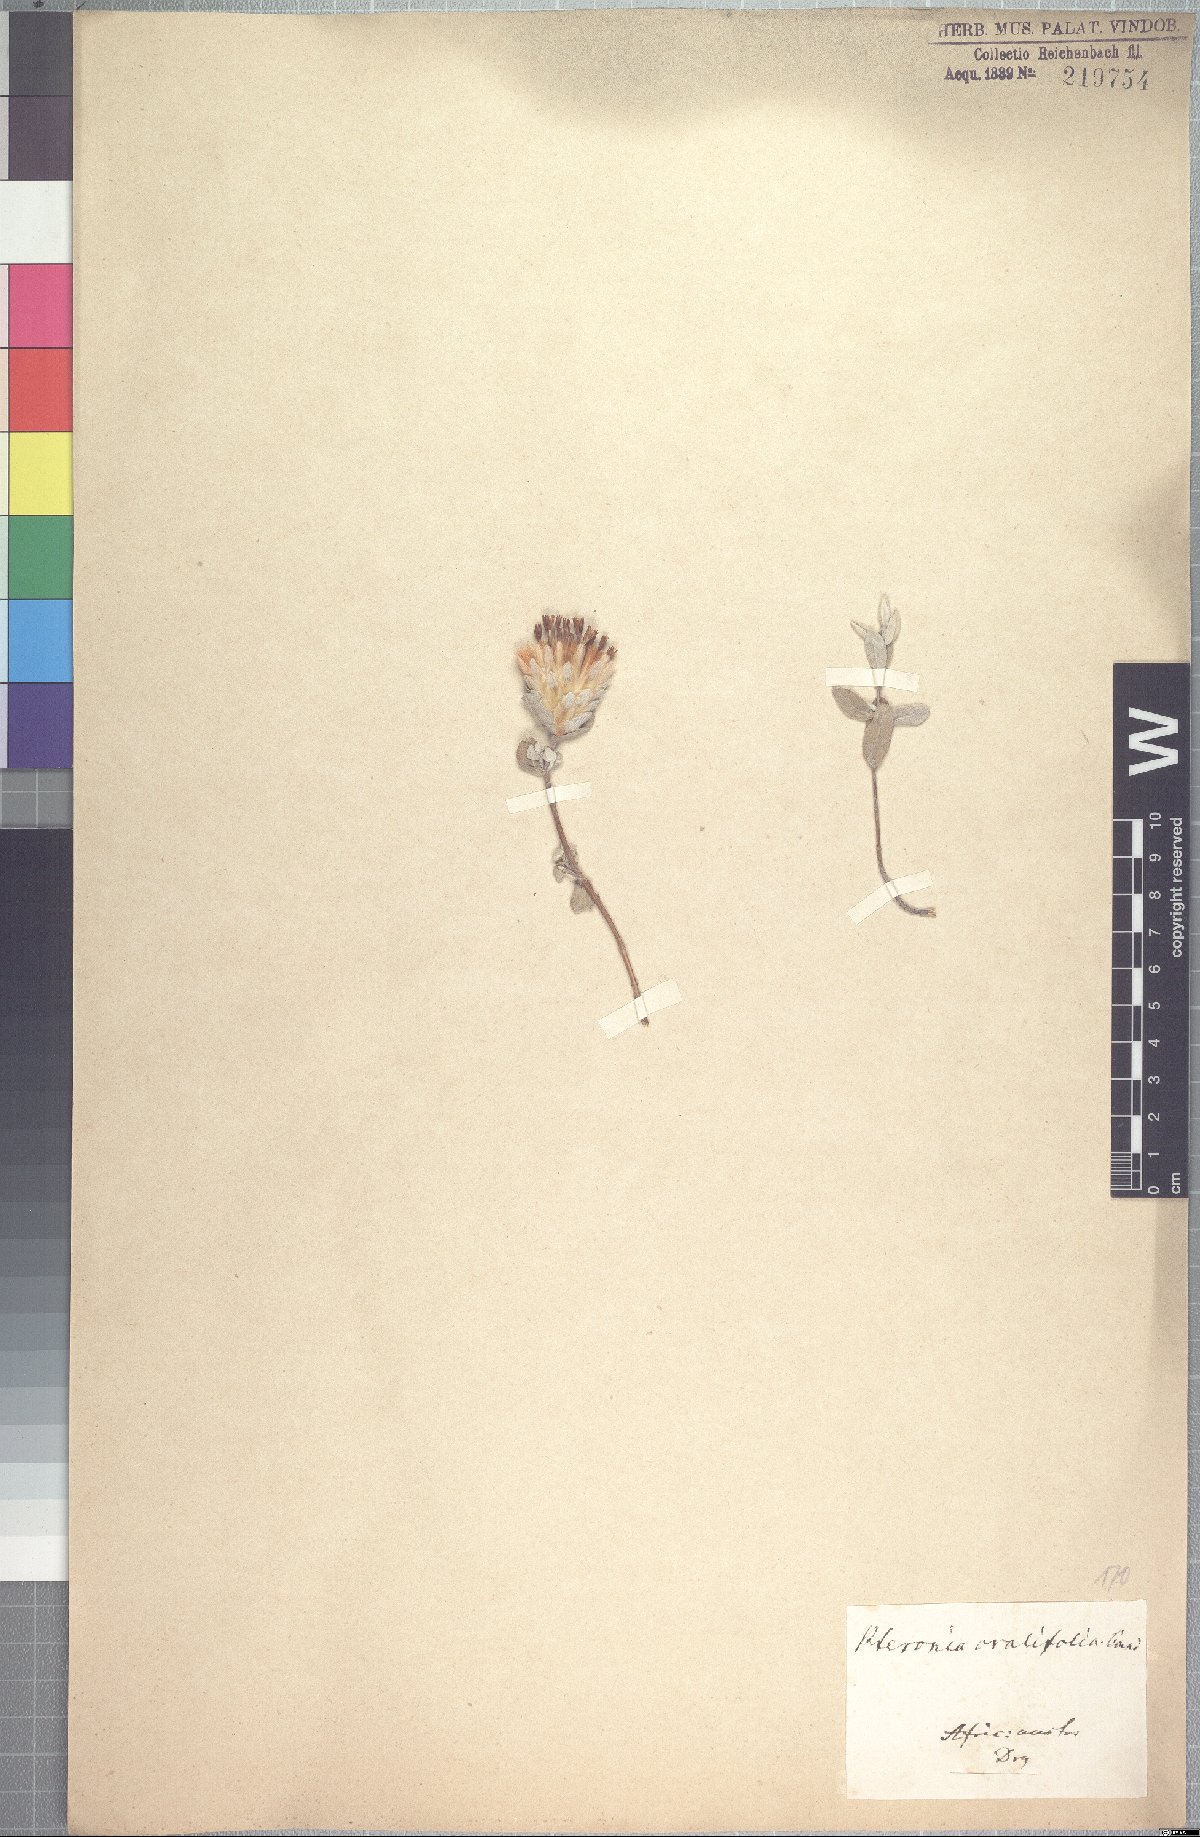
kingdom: Plantae
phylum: Tracheophyta
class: Magnoliopsida
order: Asterales
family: Asteraceae
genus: Pteronia
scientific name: Pteronia ovalifolia
